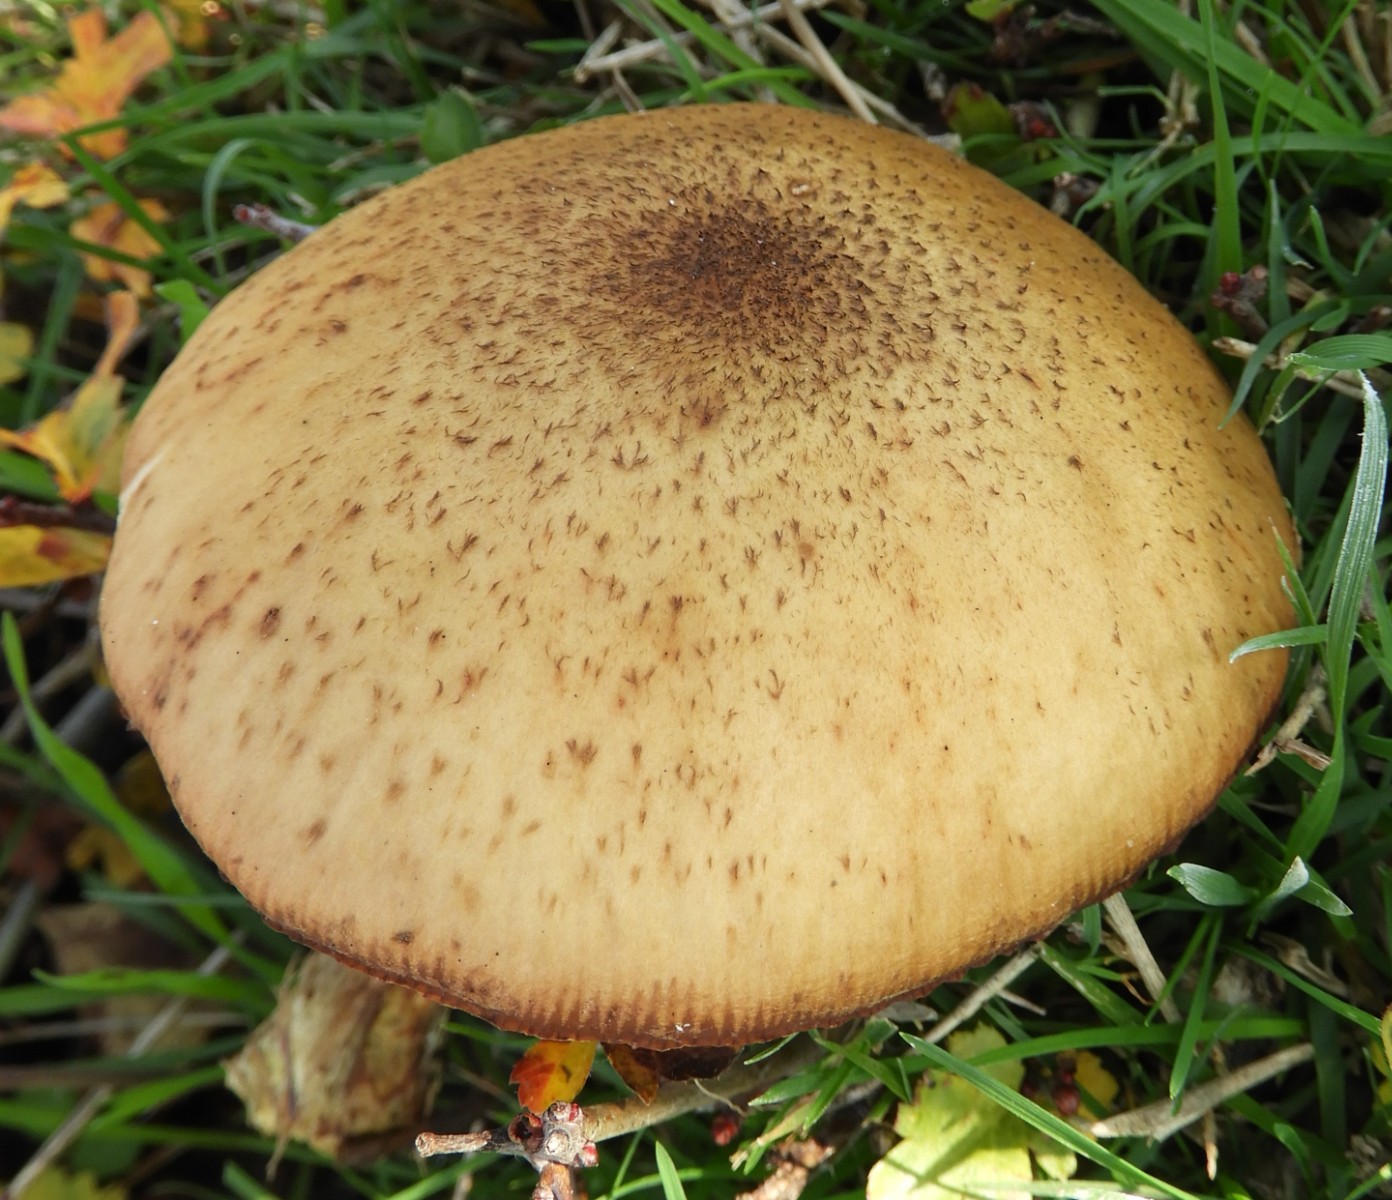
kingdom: Fungi
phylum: Basidiomycota
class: Agaricomycetes
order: Agaricales
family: Physalacriaceae
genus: Armillaria
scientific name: Armillaria
